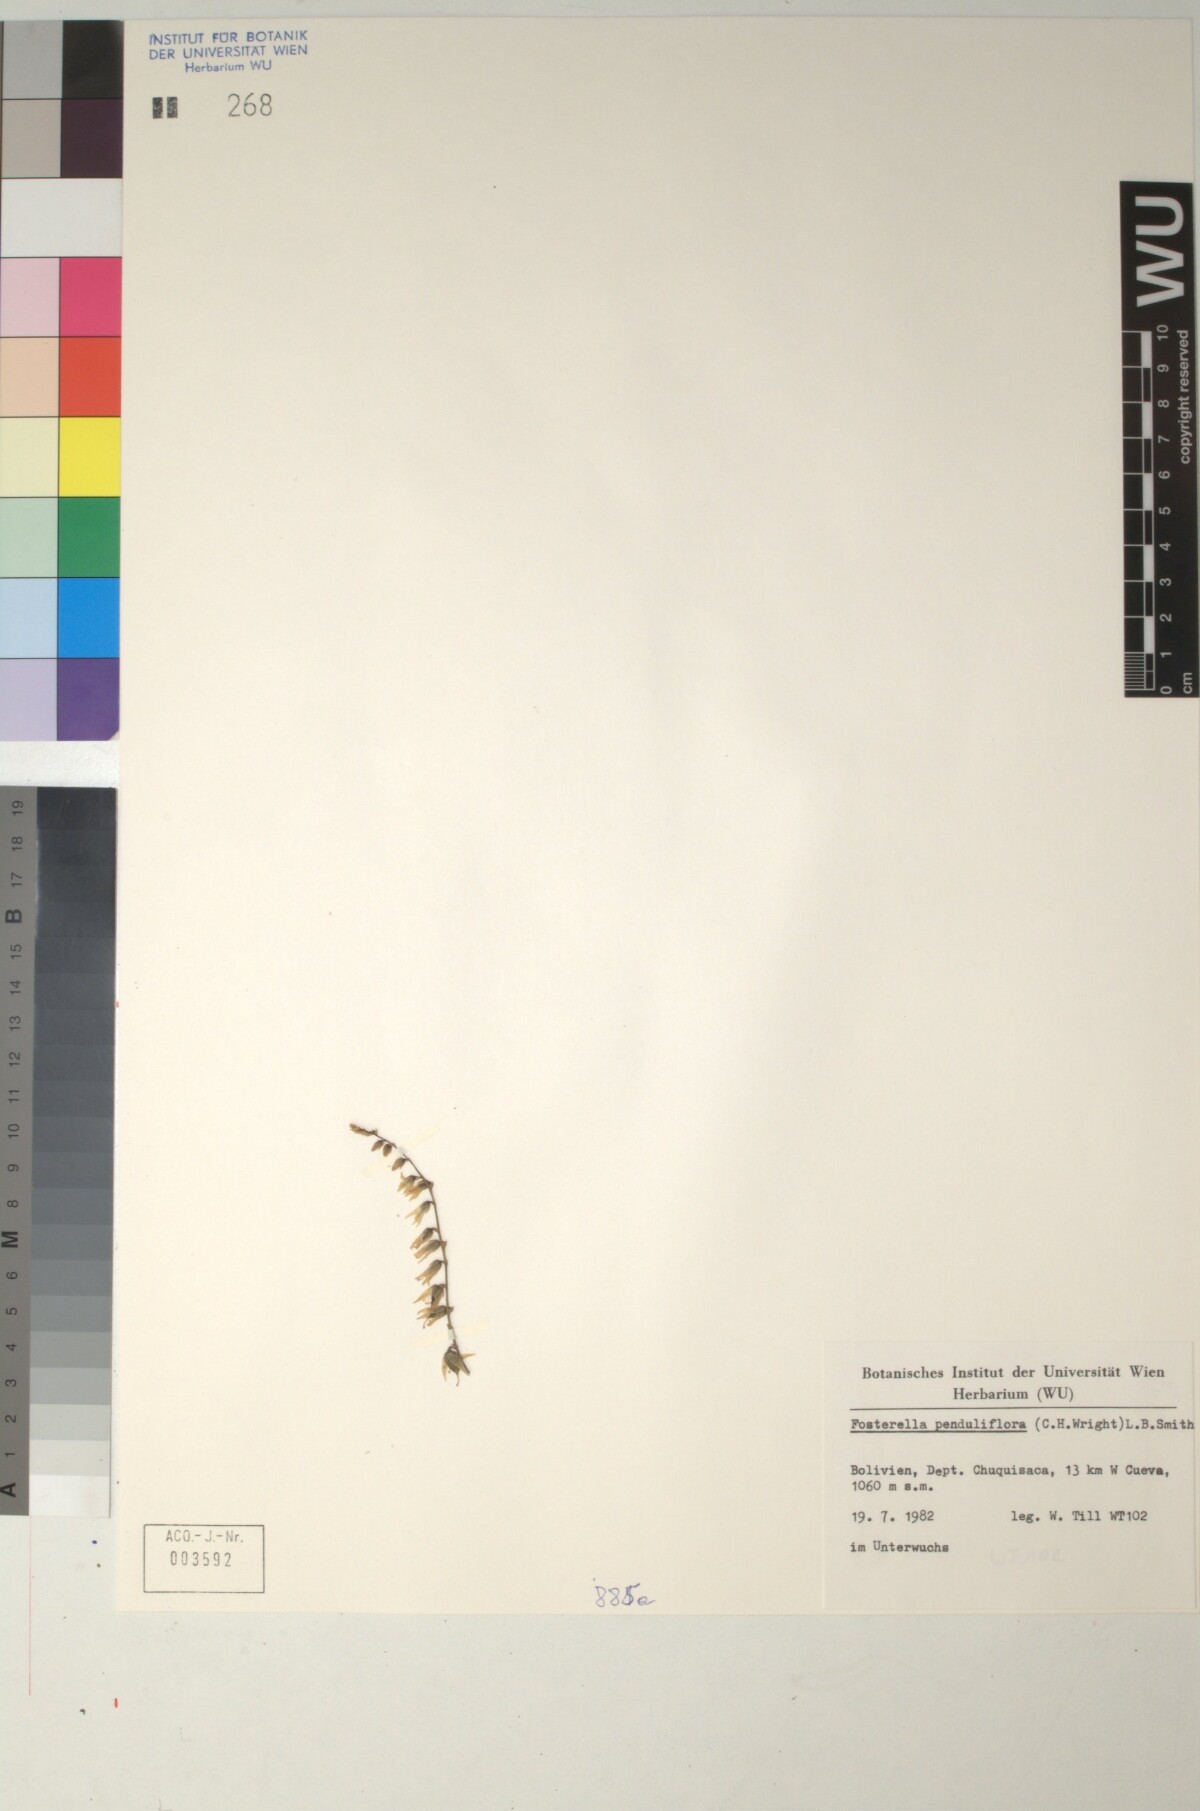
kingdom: Plantae
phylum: Tracheophyta
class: Liliopsida
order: Poales
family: Bromeliaceae
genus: Fosterella
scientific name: Fosterella penduliflora
